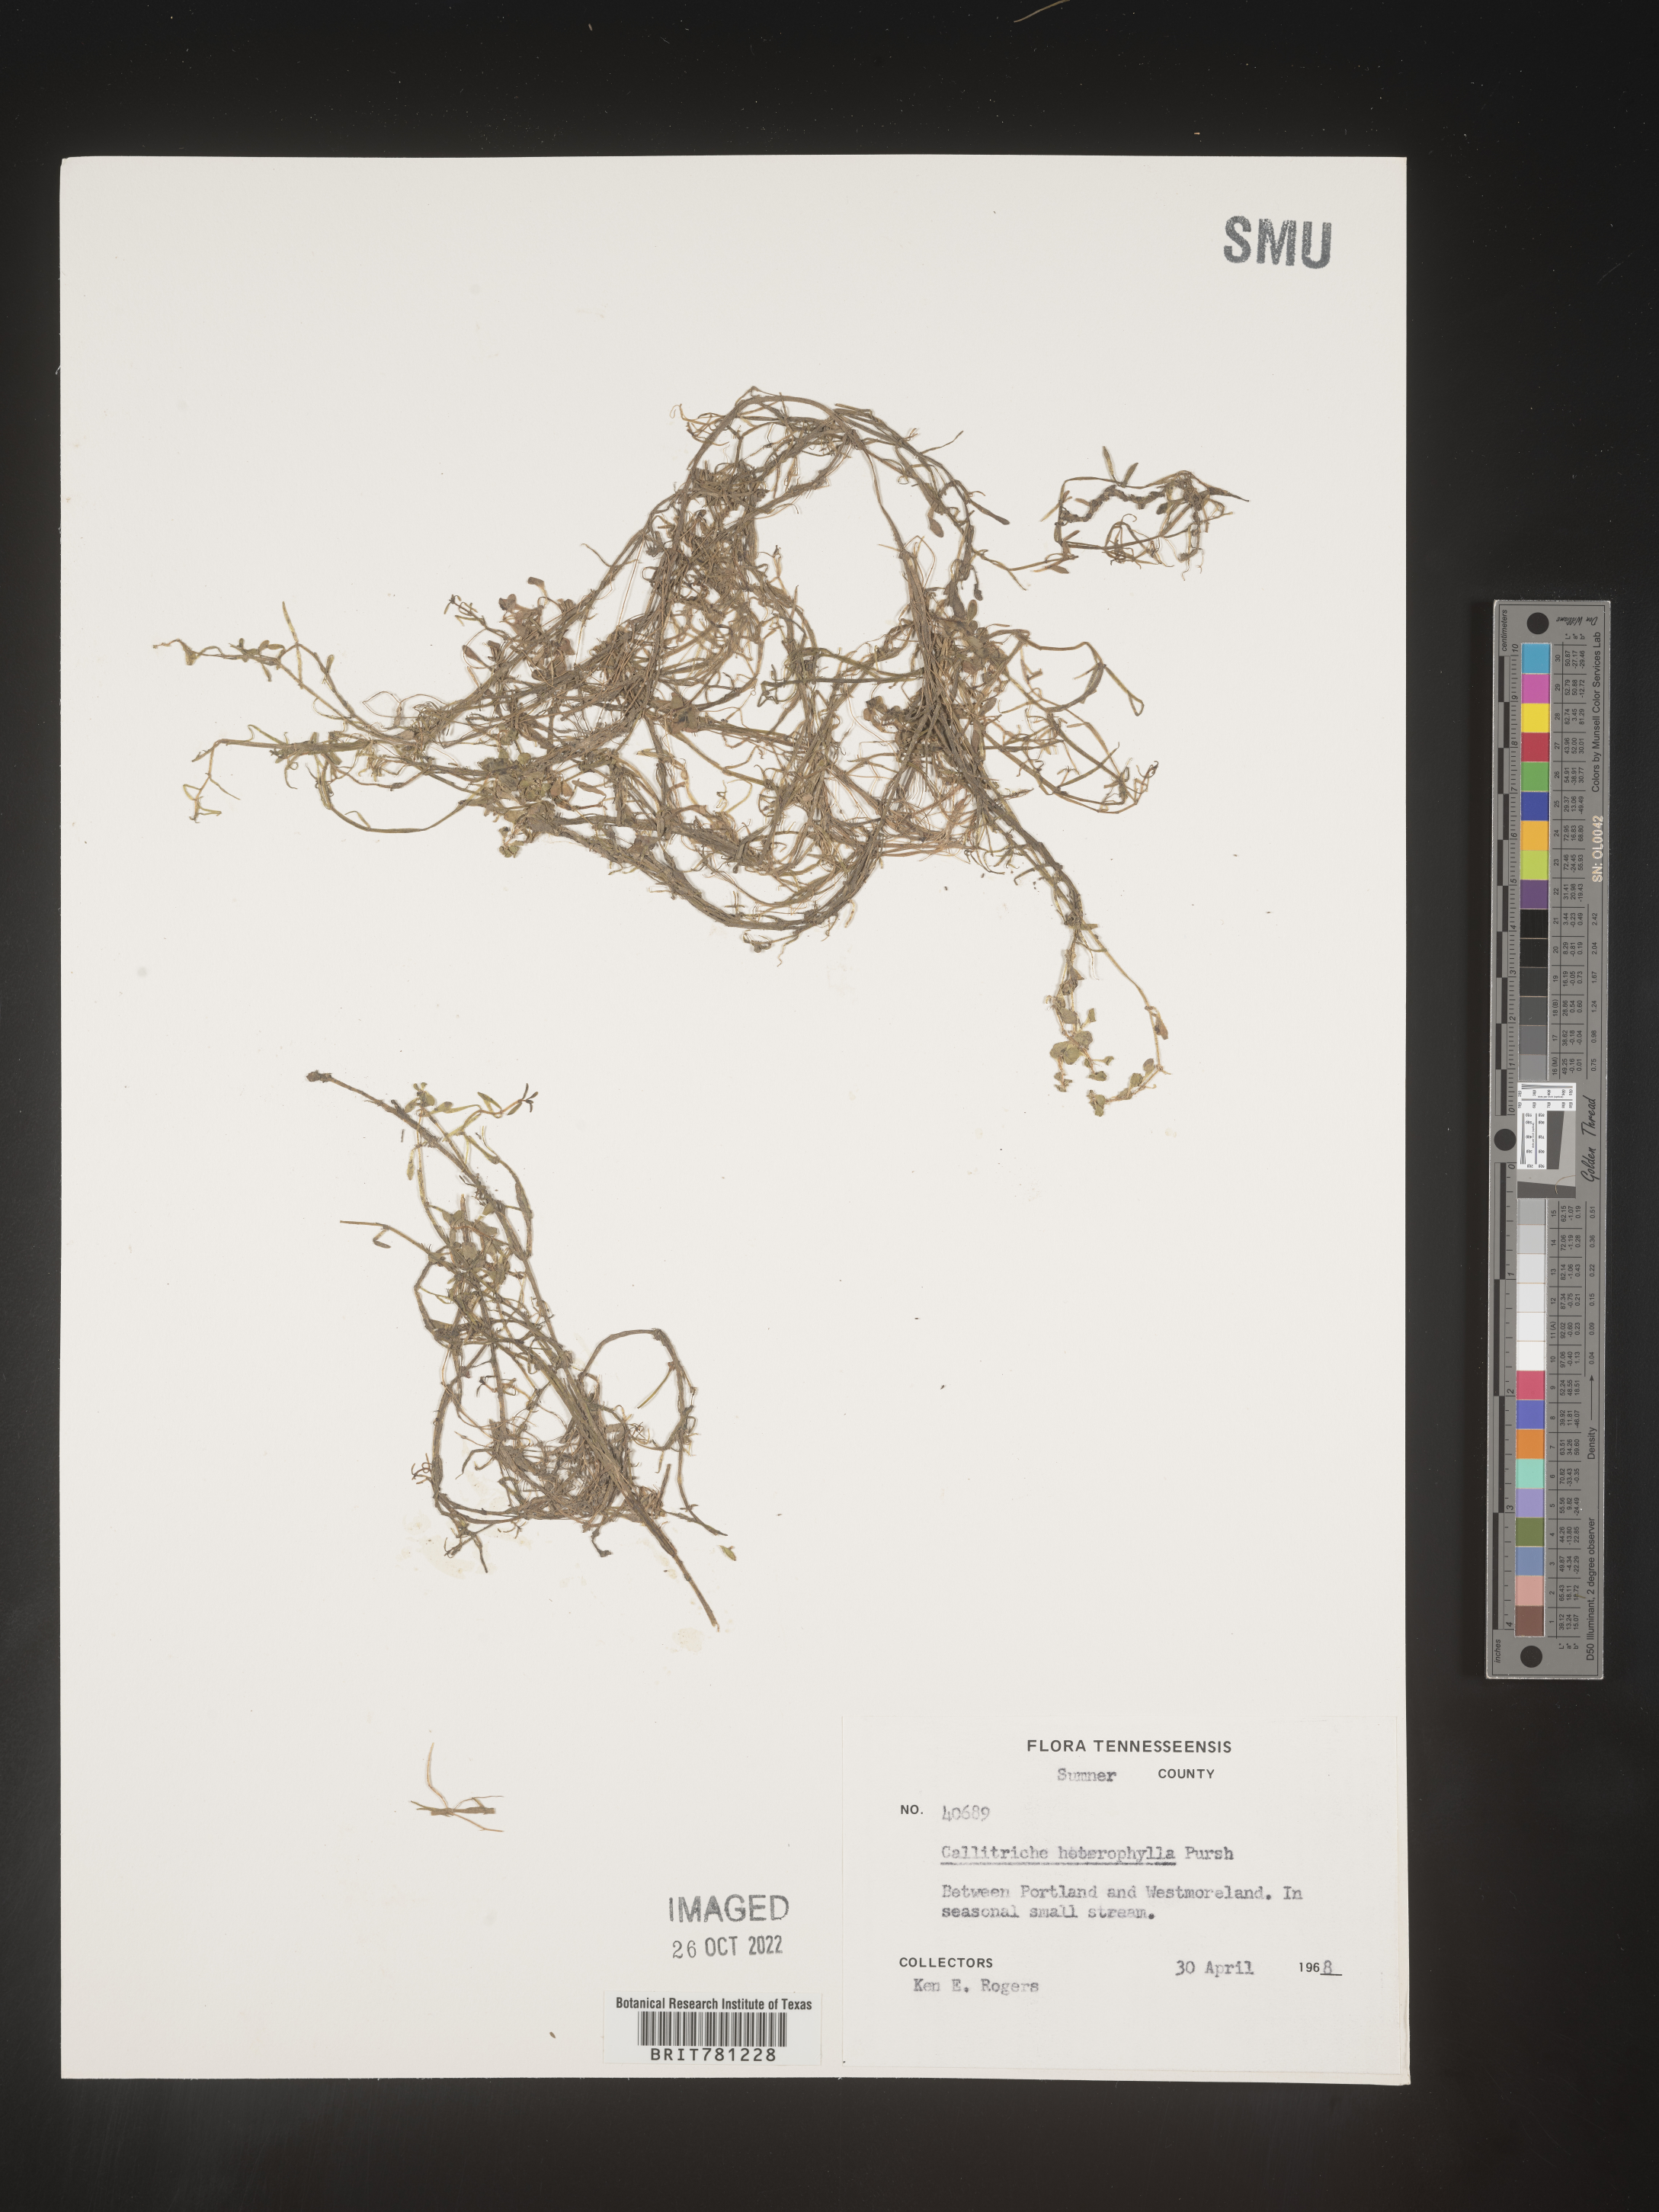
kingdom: Plantae
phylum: Tracheophyta
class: Magnoliopsida
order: Lamiales
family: Plantaginaceae
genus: Callitriche
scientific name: Callitriche heterophylla
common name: Two-headed water-starwort
